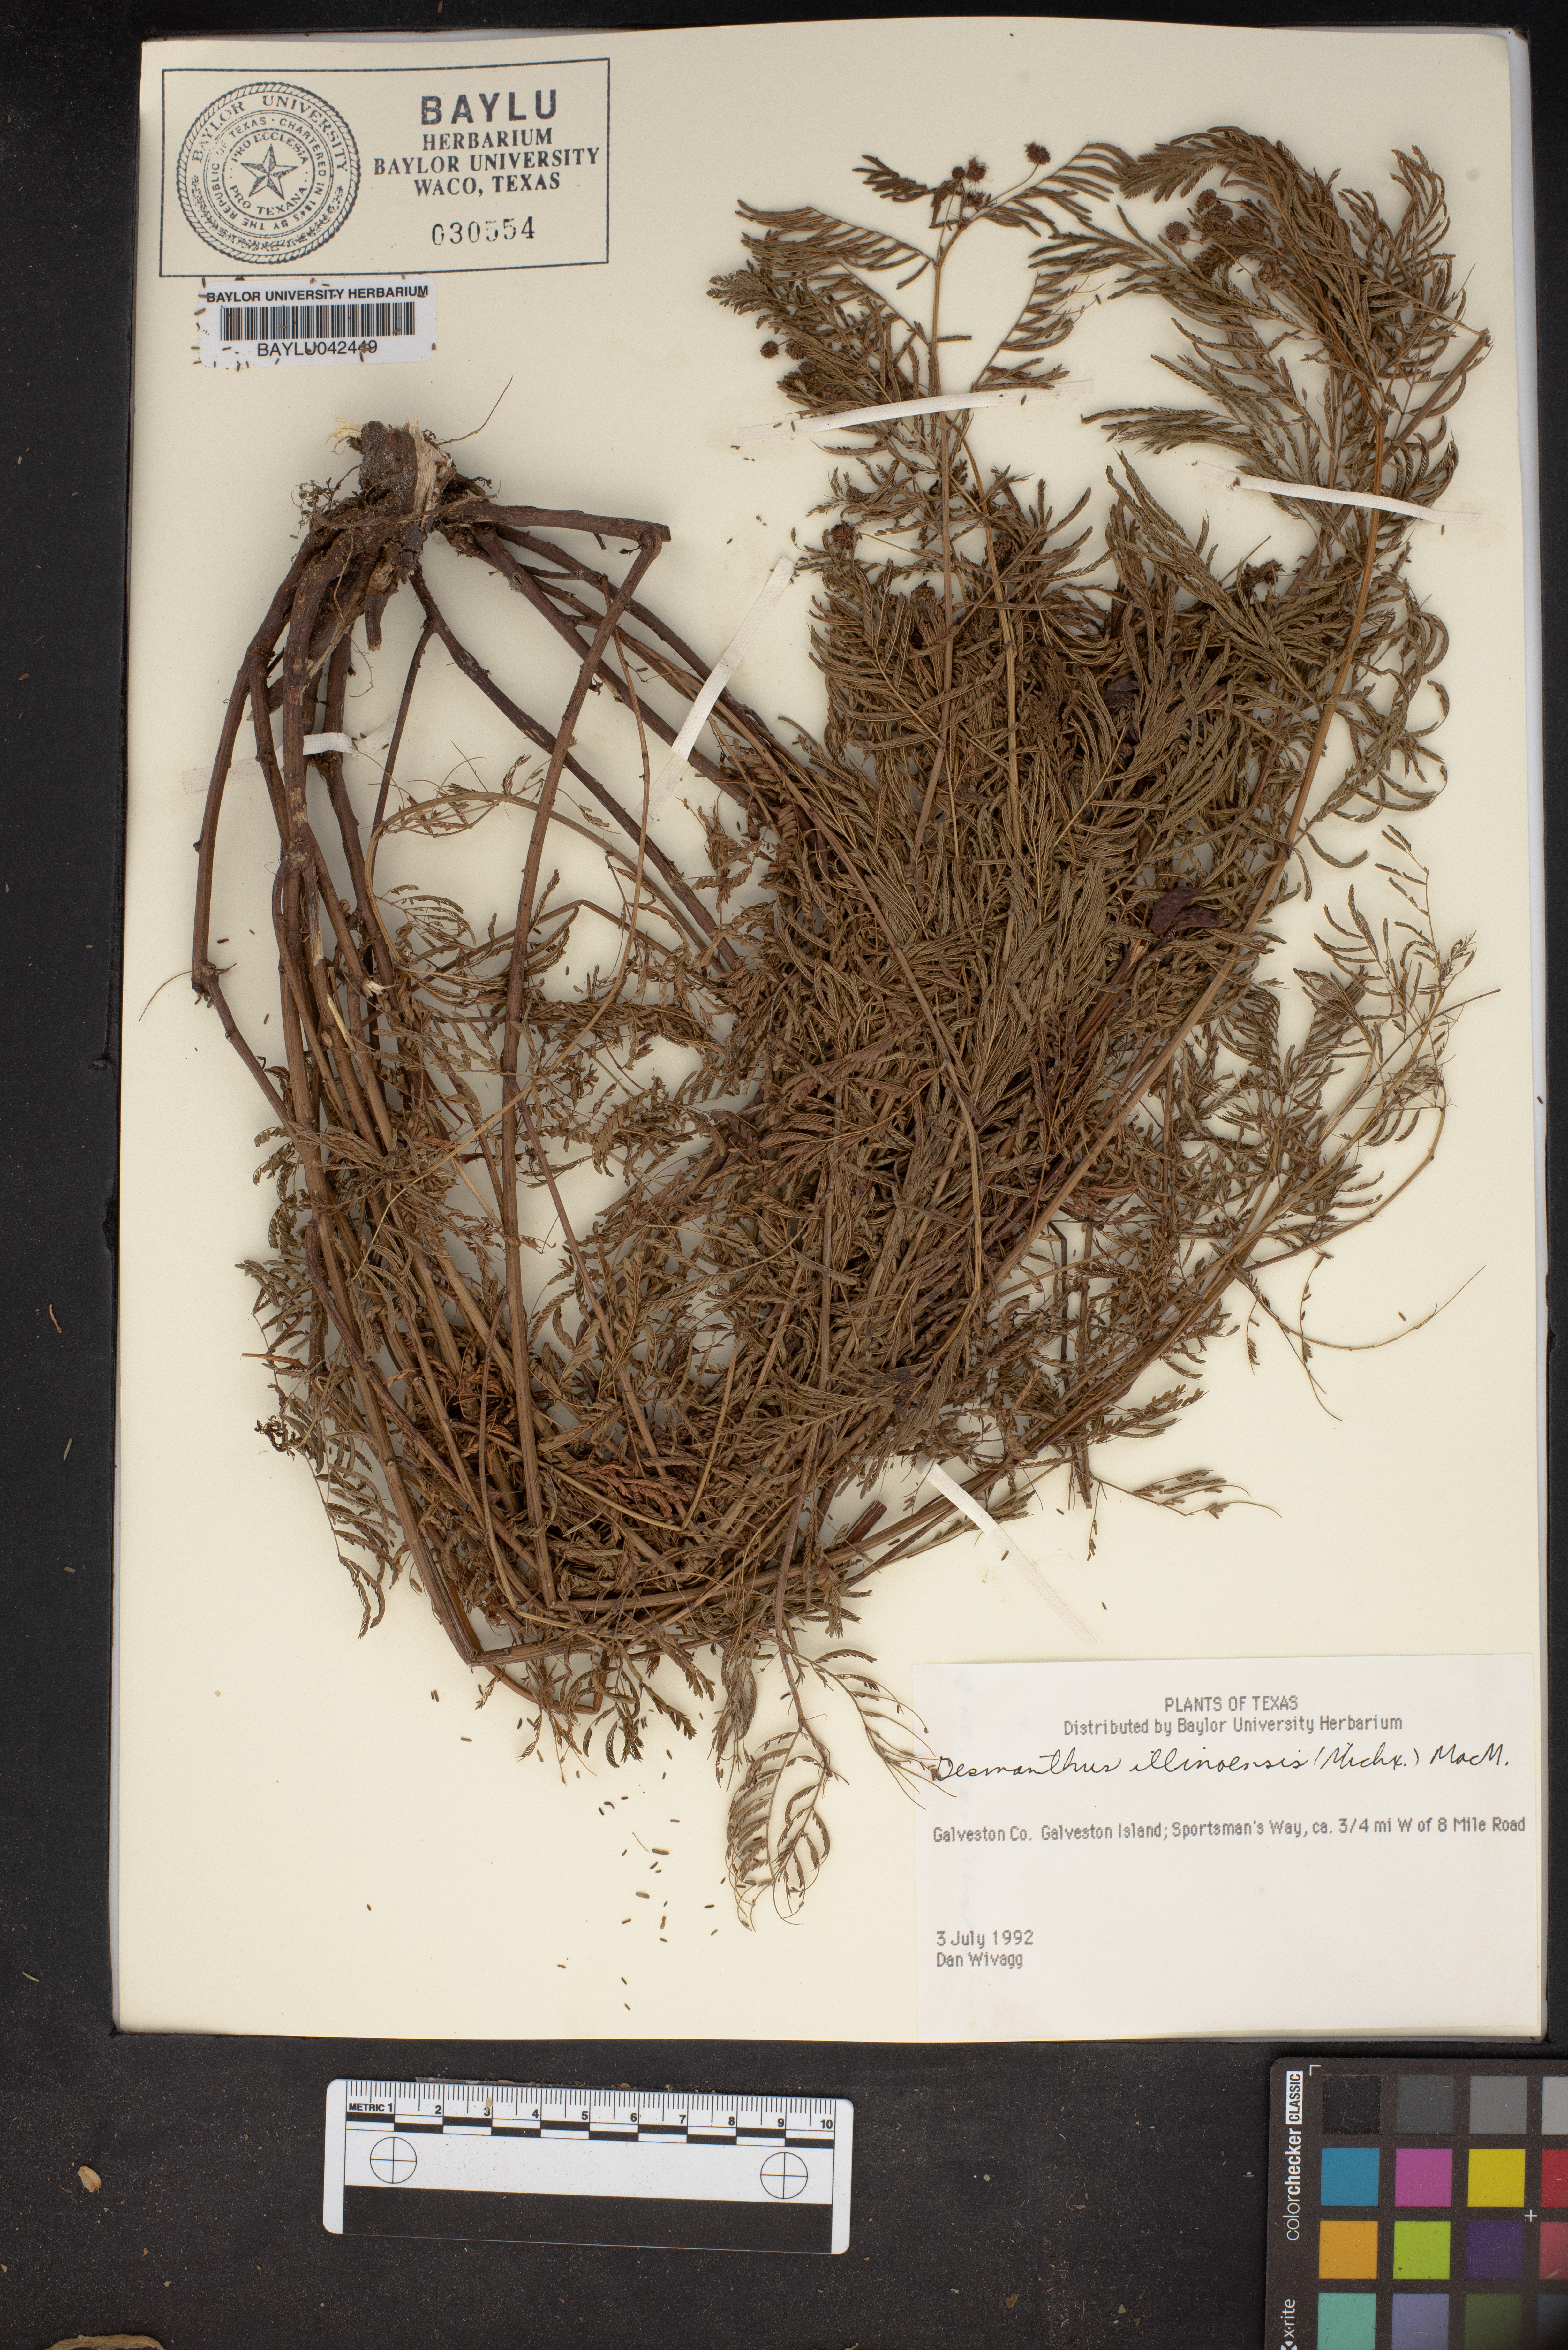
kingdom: Plantae
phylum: Tracheophyta
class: Magnoliopsida
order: Fabales
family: Fabaceae
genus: Desmanthus
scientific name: Desmanthus illinoensis
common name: Illinois bundle-flower
